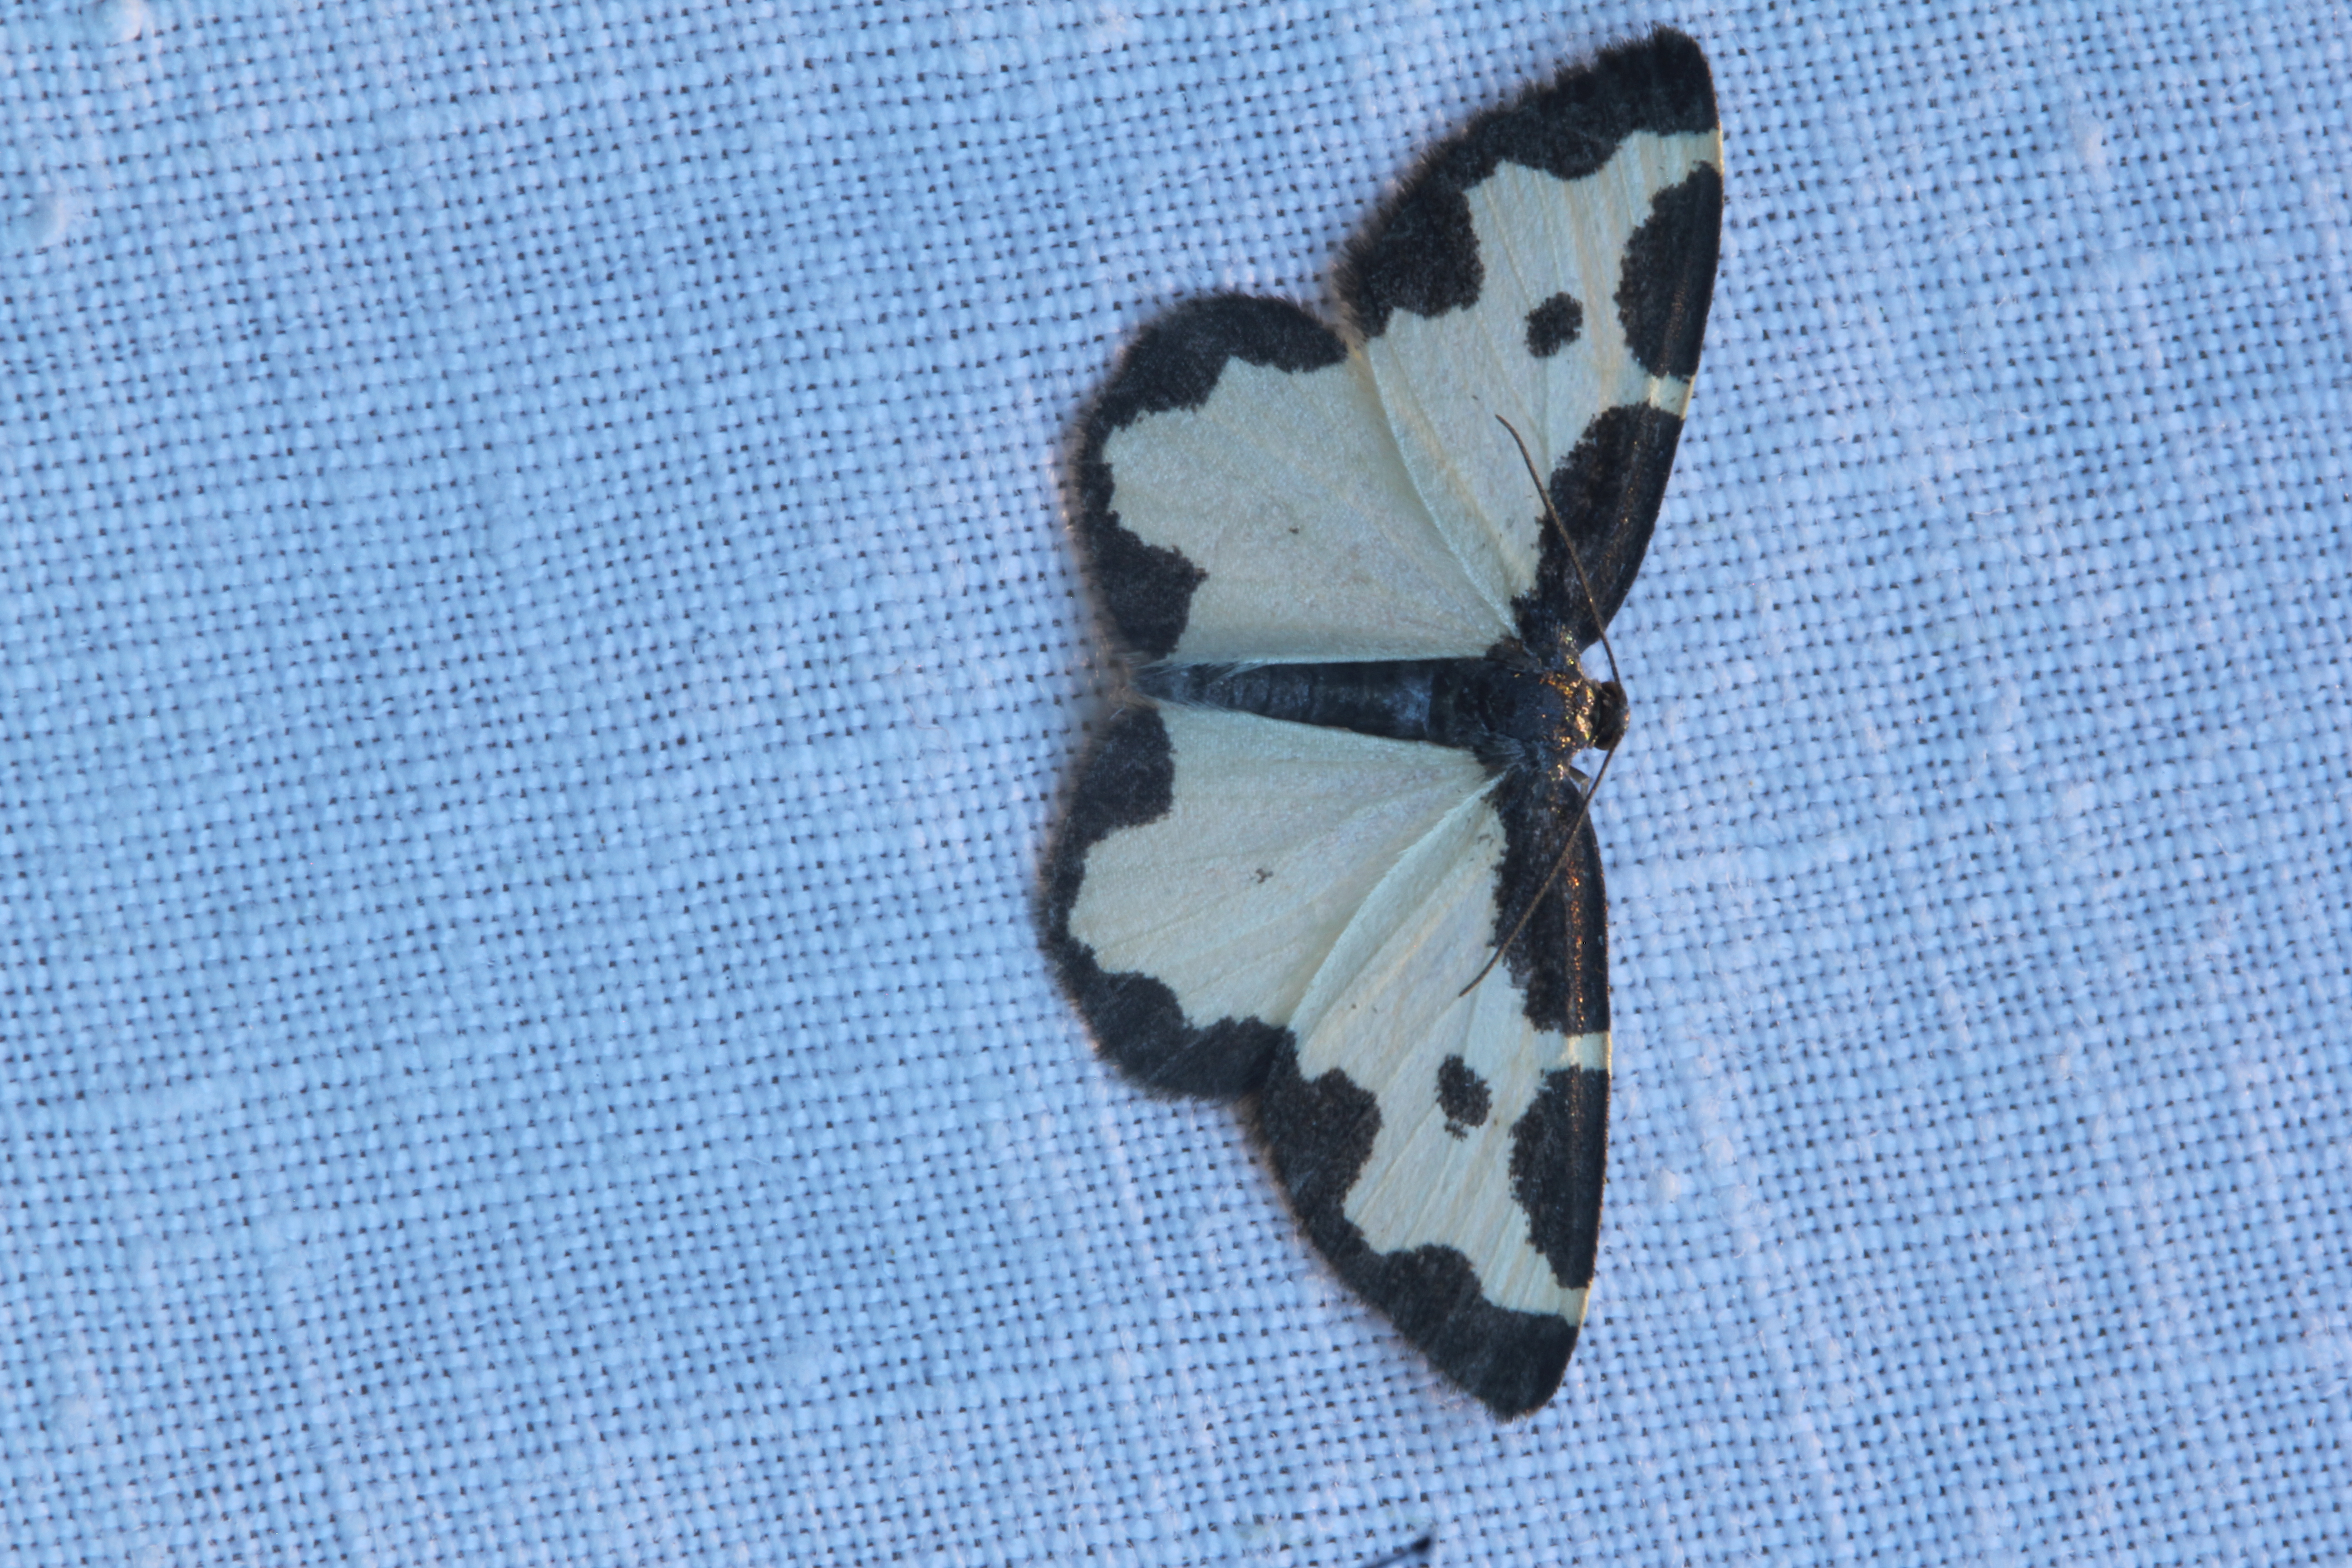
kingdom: Animalia
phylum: Arthropoda
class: Insecta
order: Lepidoptera
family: Geometridae
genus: Lomaspilis
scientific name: Lomaspilis marginata
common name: Clouded border
